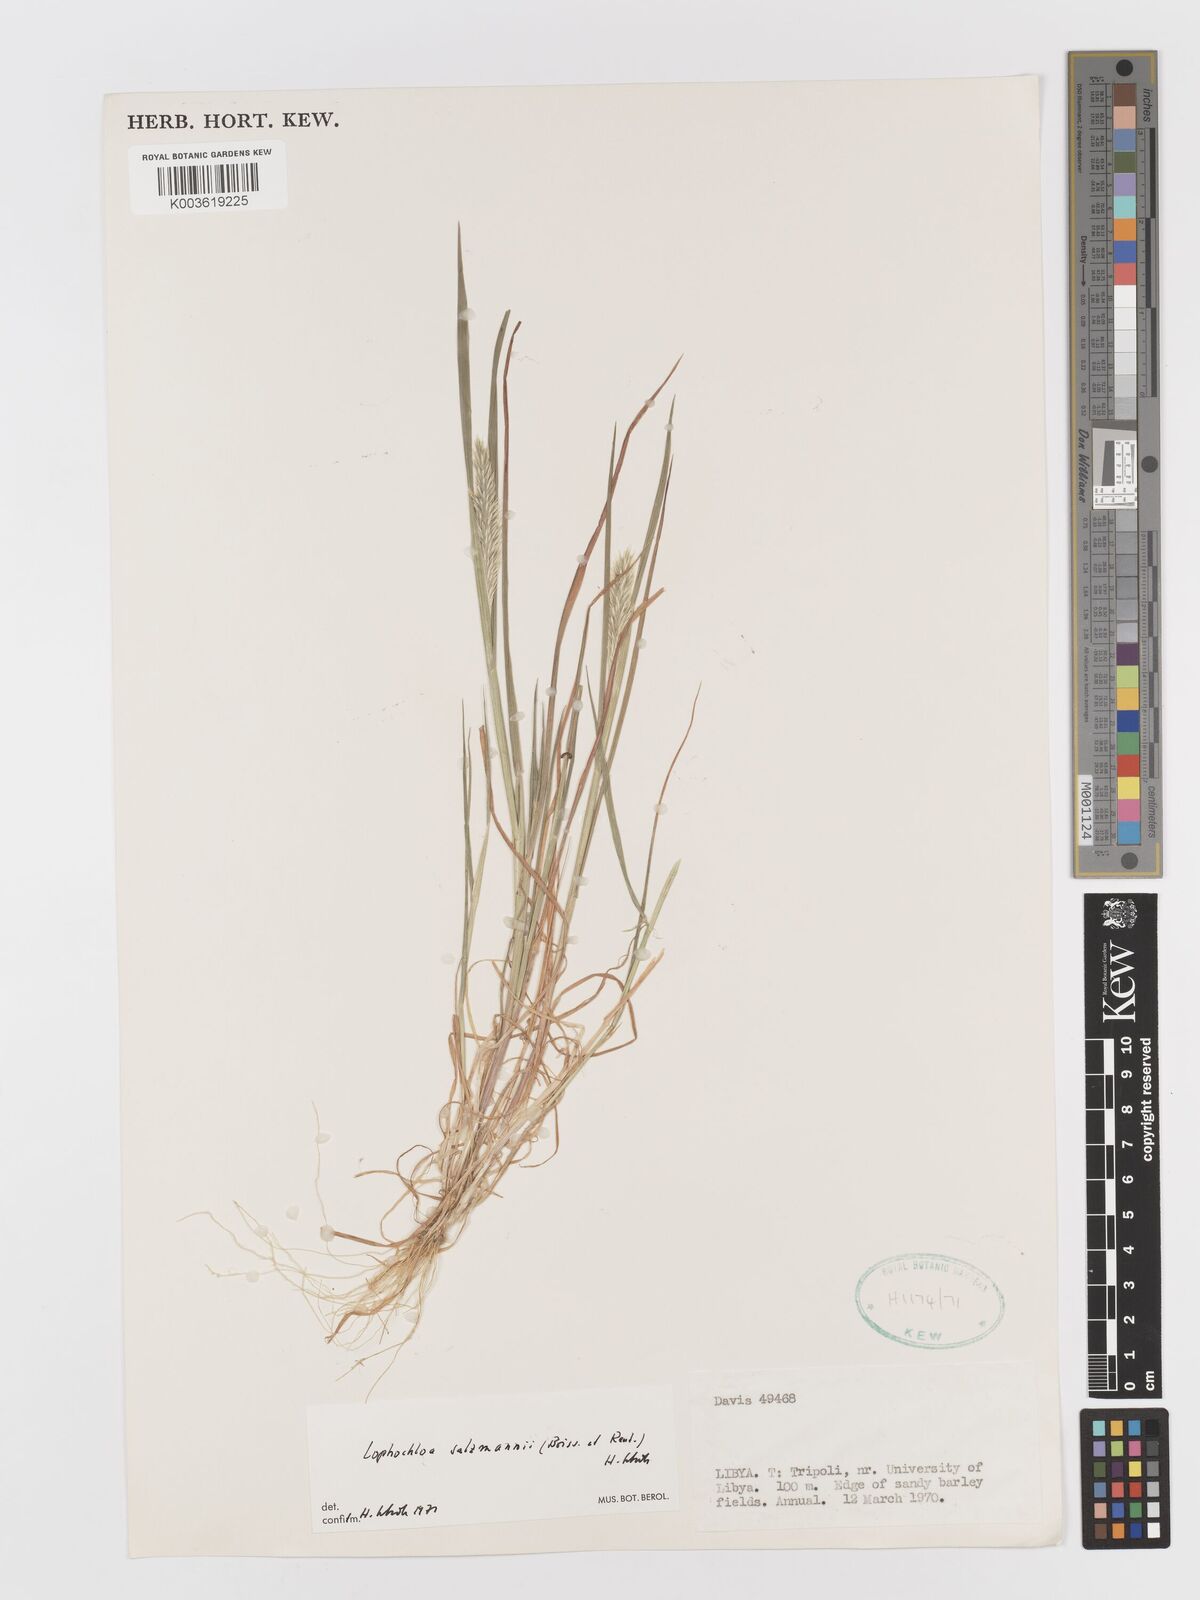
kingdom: Plantae
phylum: Tracheophyta
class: Liliopsida
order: Poales
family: Poaceae
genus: Rostraria
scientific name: Rostraria salzmannii
